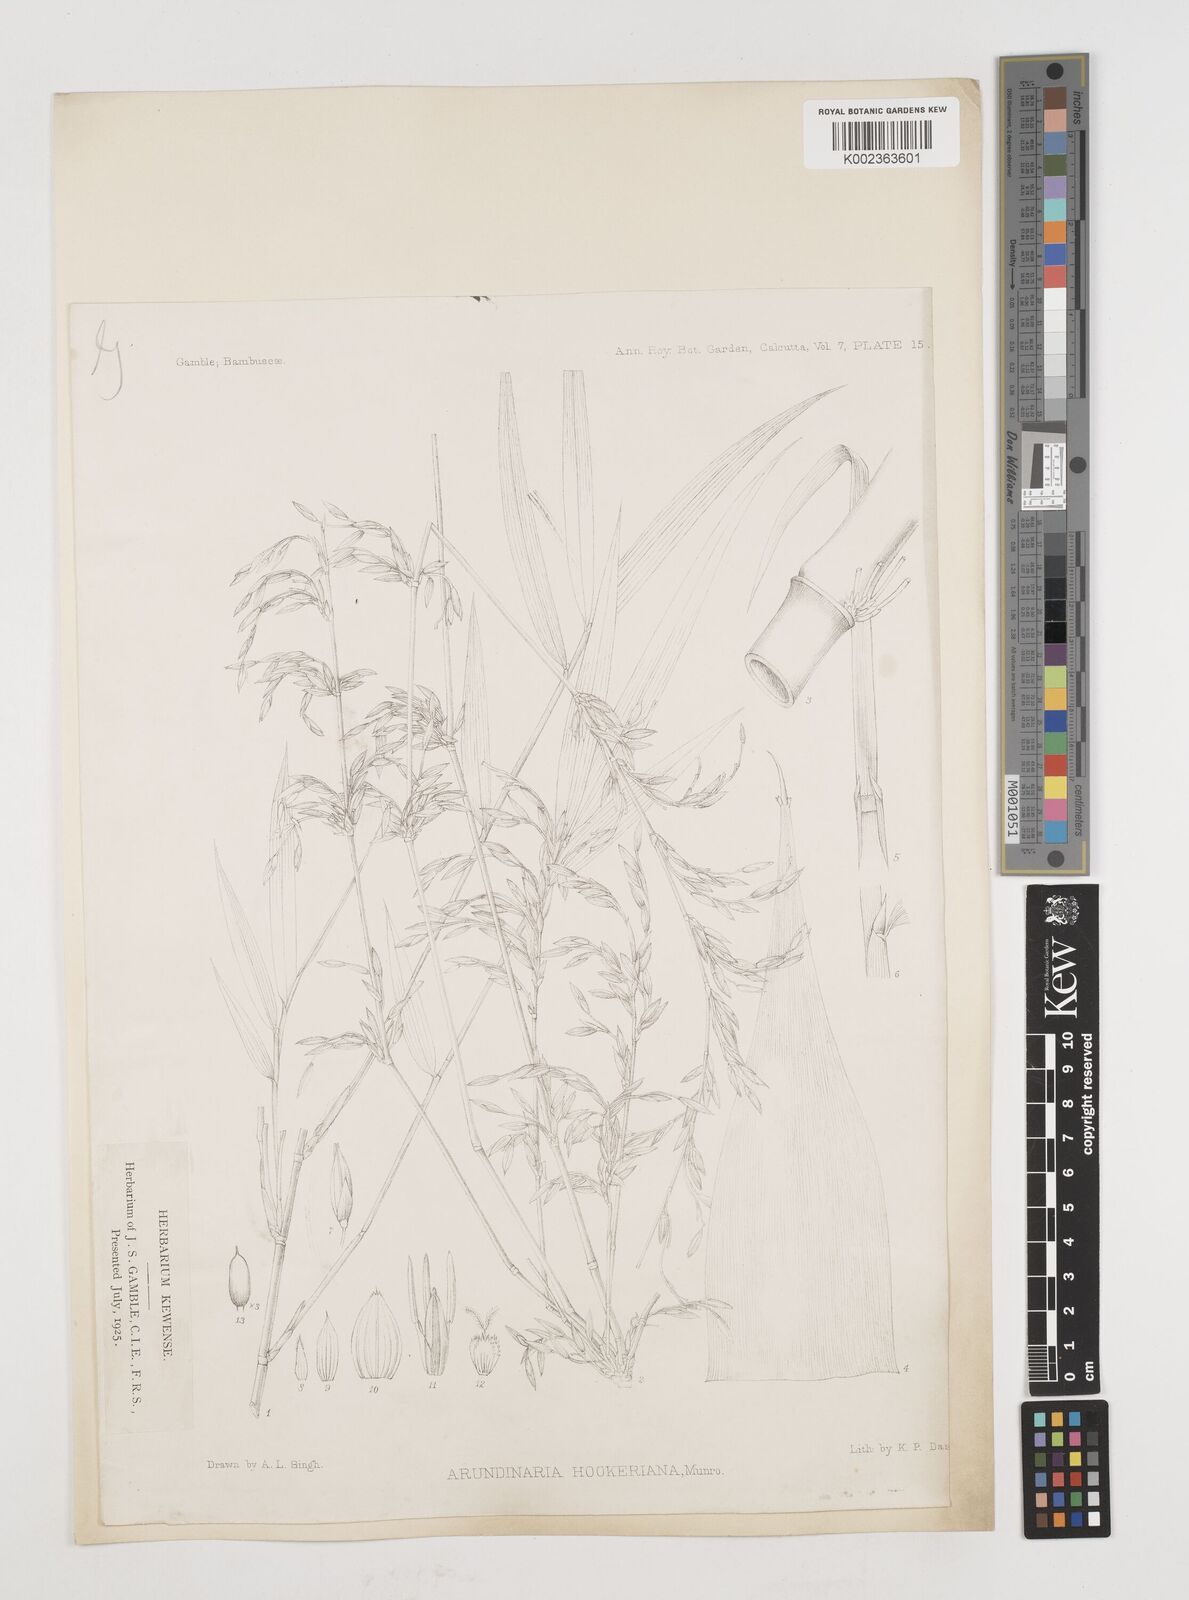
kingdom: Plantae
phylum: Tracheophyta
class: Liliopsida
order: Poales
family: Poaceae
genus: Himalayacalamus
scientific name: Himalayacalamus hookerianus
